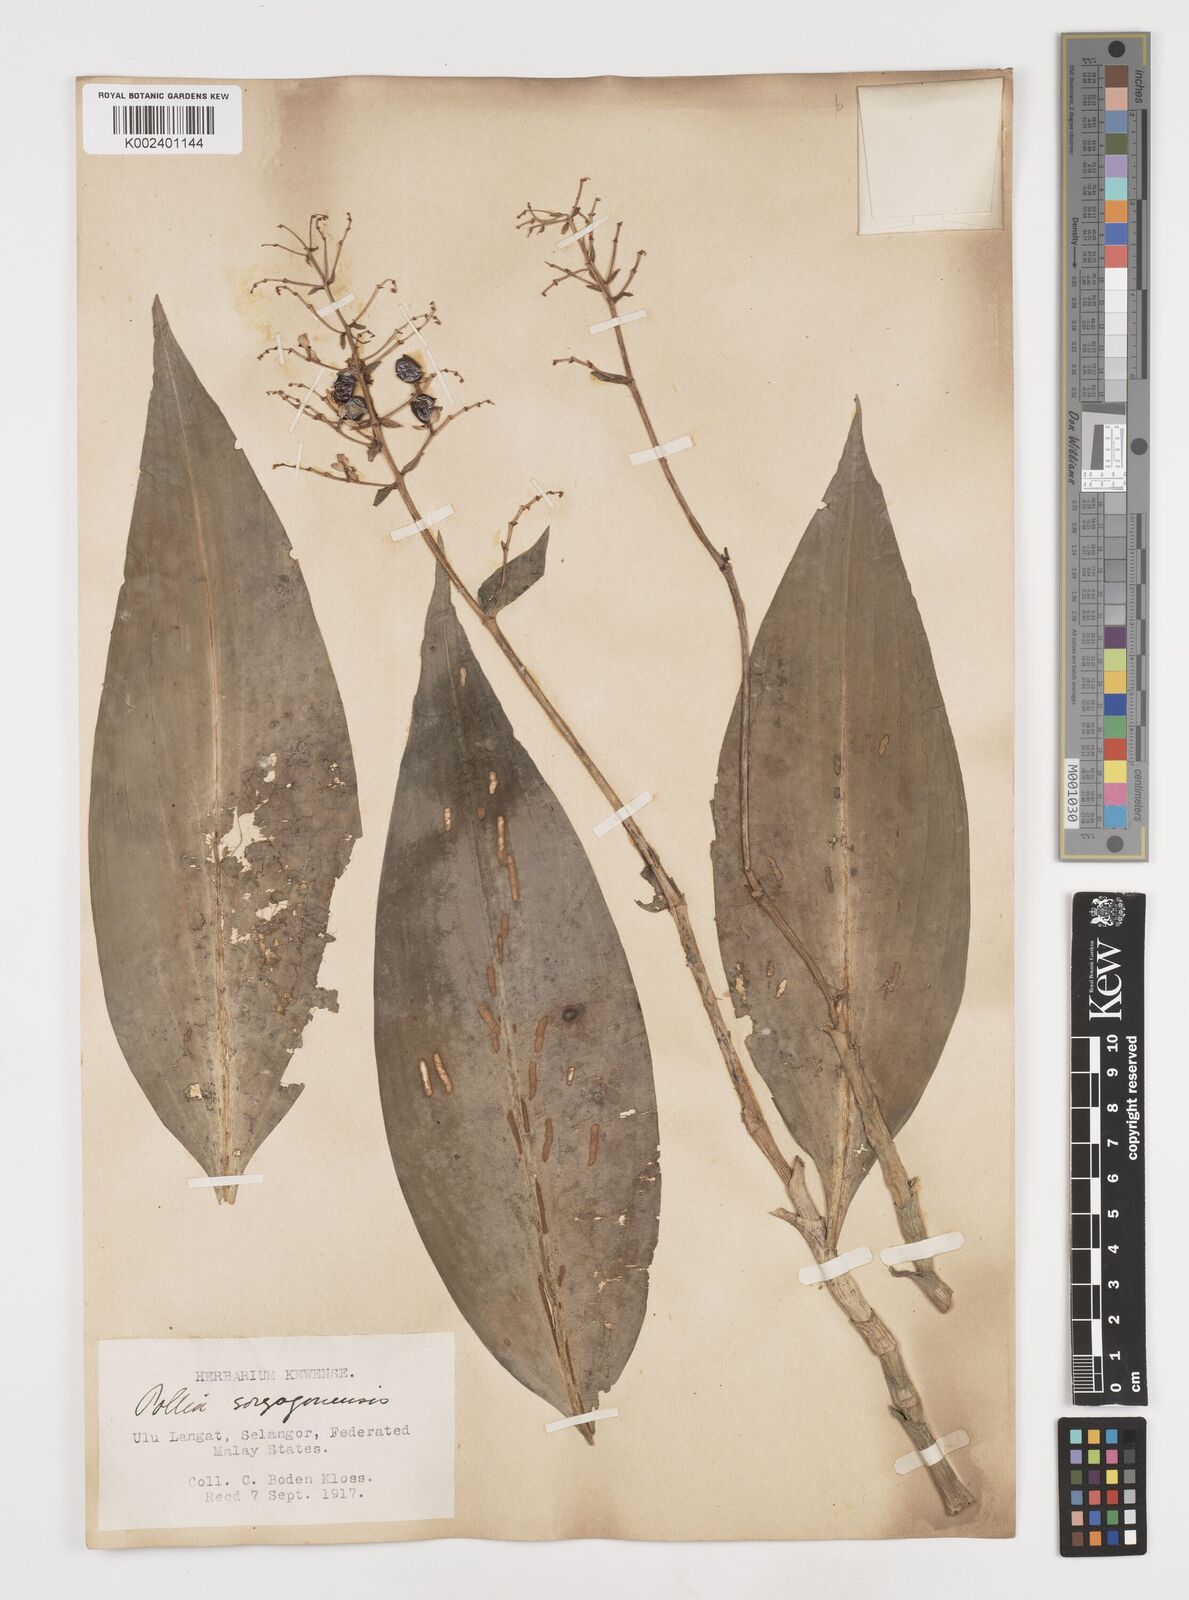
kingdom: Plantae
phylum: Tracheophyta
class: Liliopsida
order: Commelinales
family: Commelinaceae
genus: Pollia
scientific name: Pollia secundiflora
